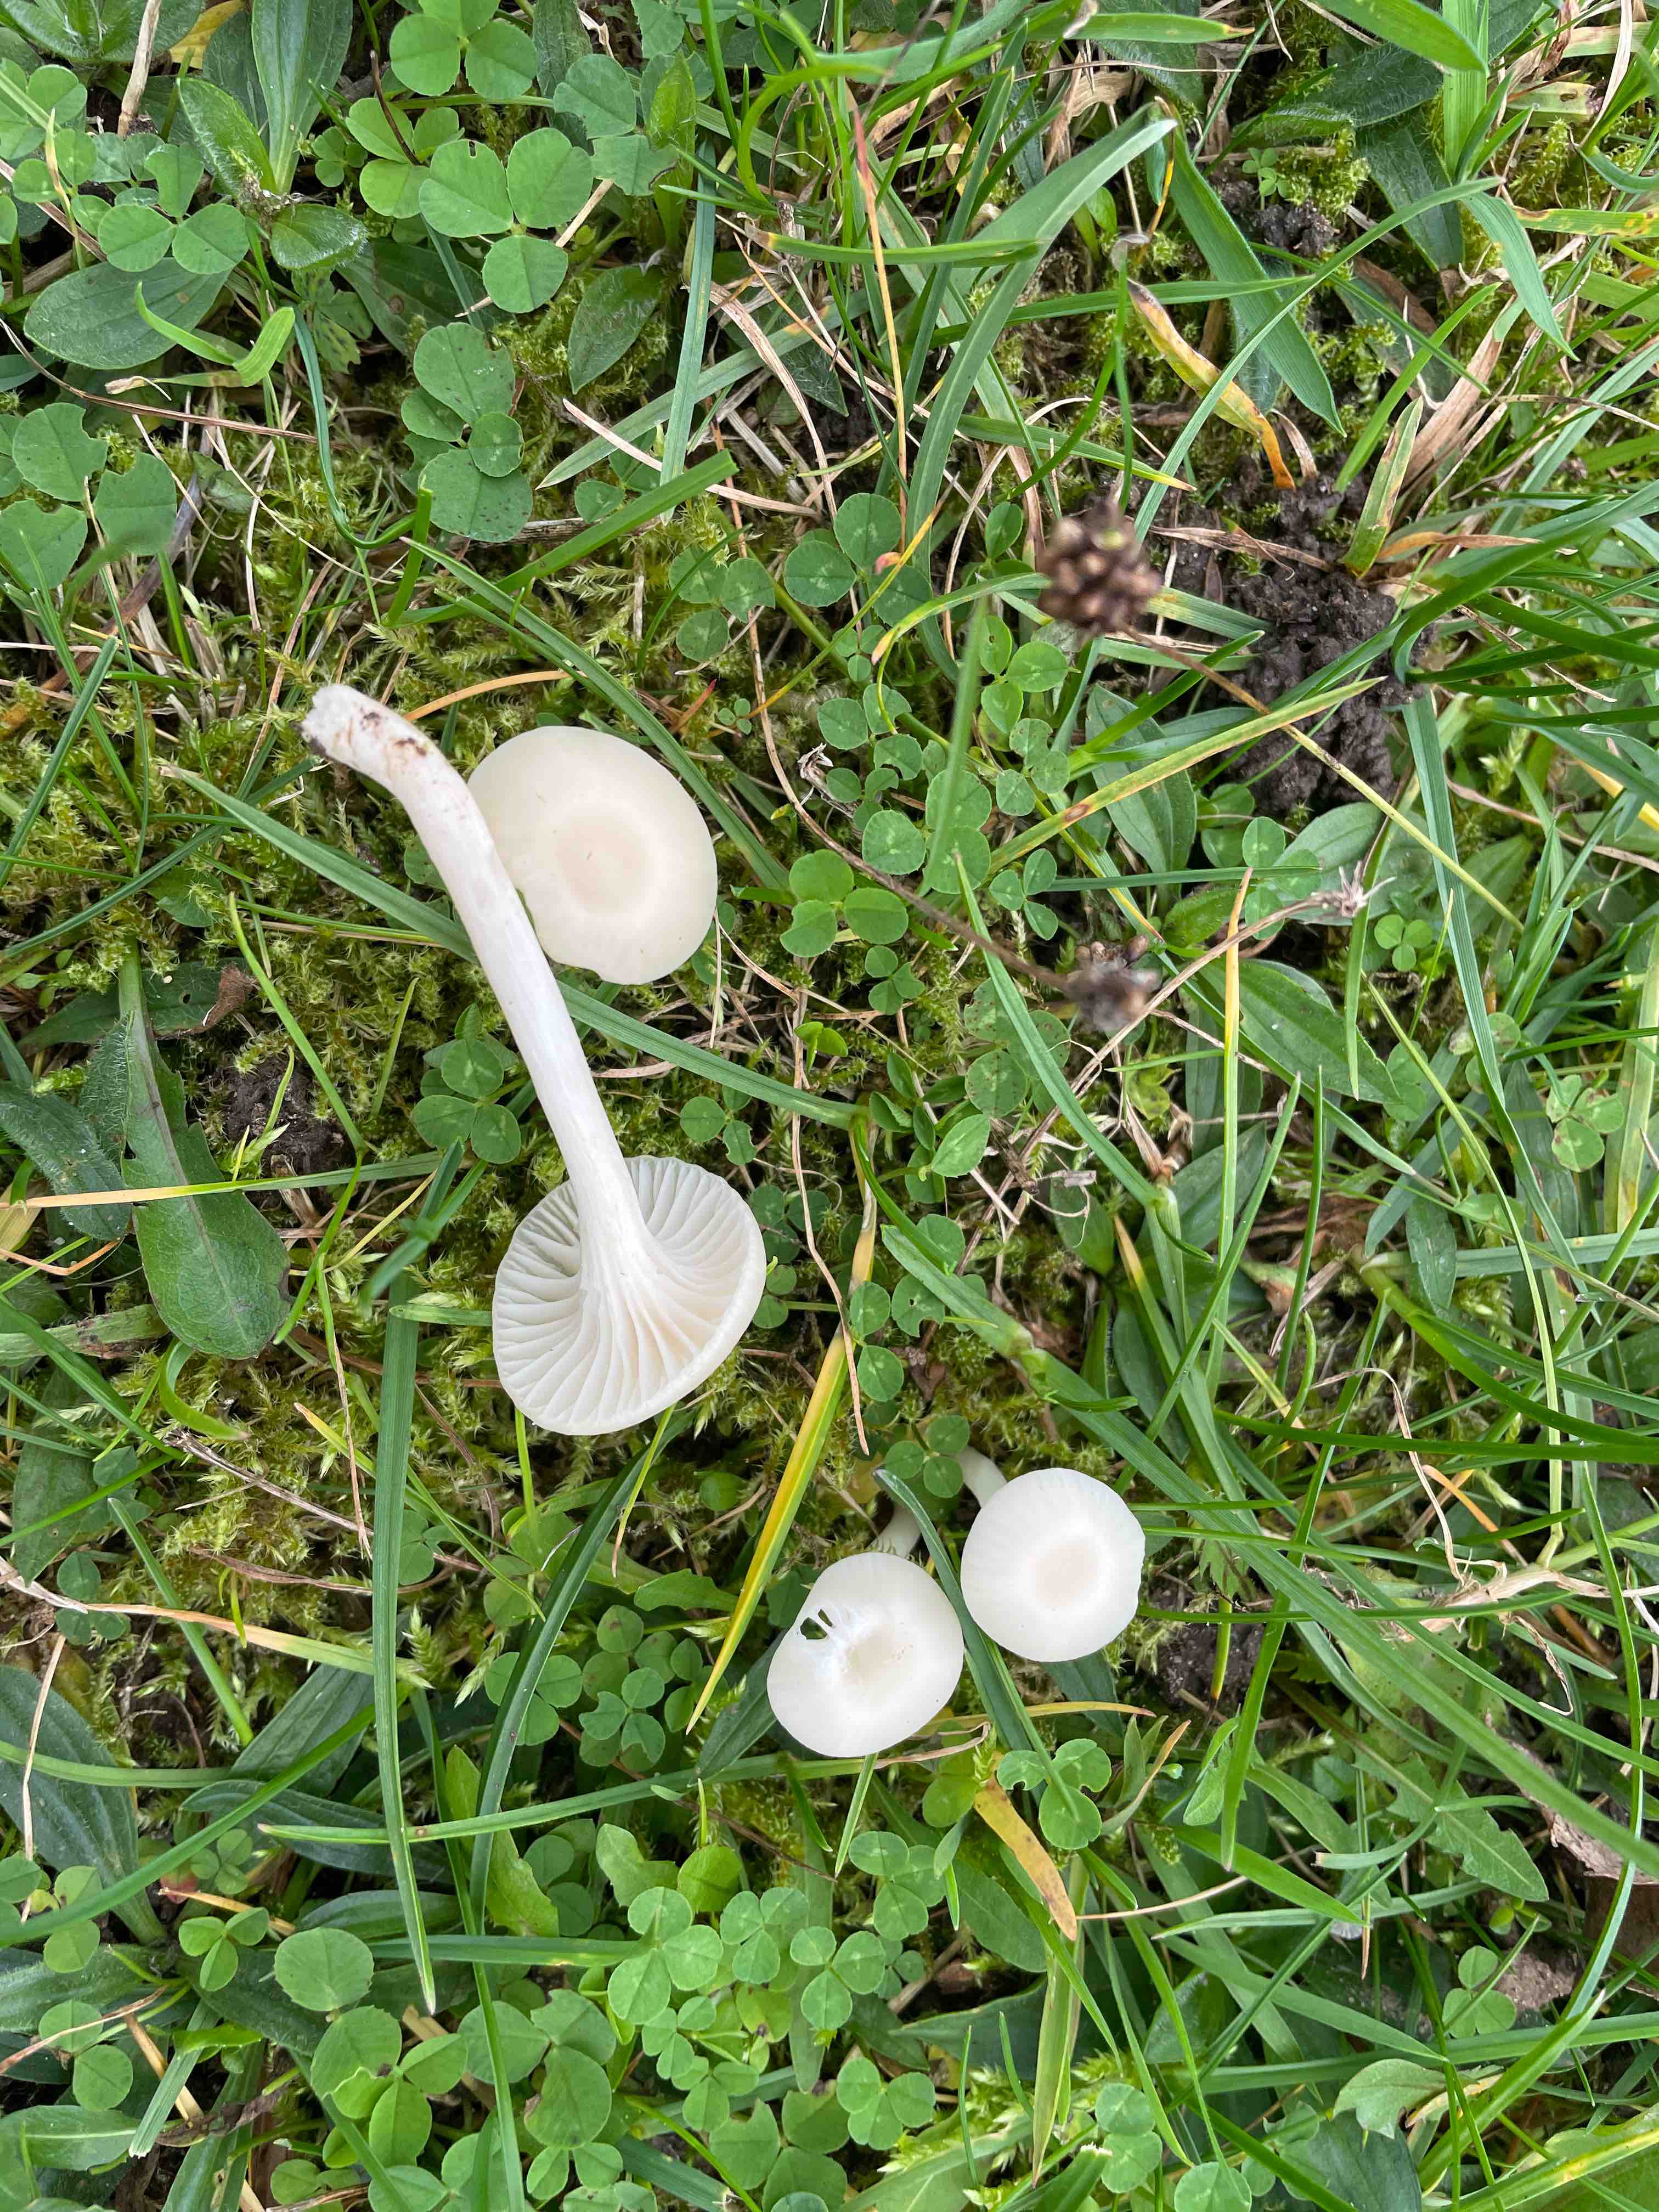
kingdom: Fungi
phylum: Basidiomycota
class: Agaricomycetes
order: Agaricales
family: Hygrophoraceae
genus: Cuphophyllus
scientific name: Cuphophyllus virgineus
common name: snehvid vokshat
